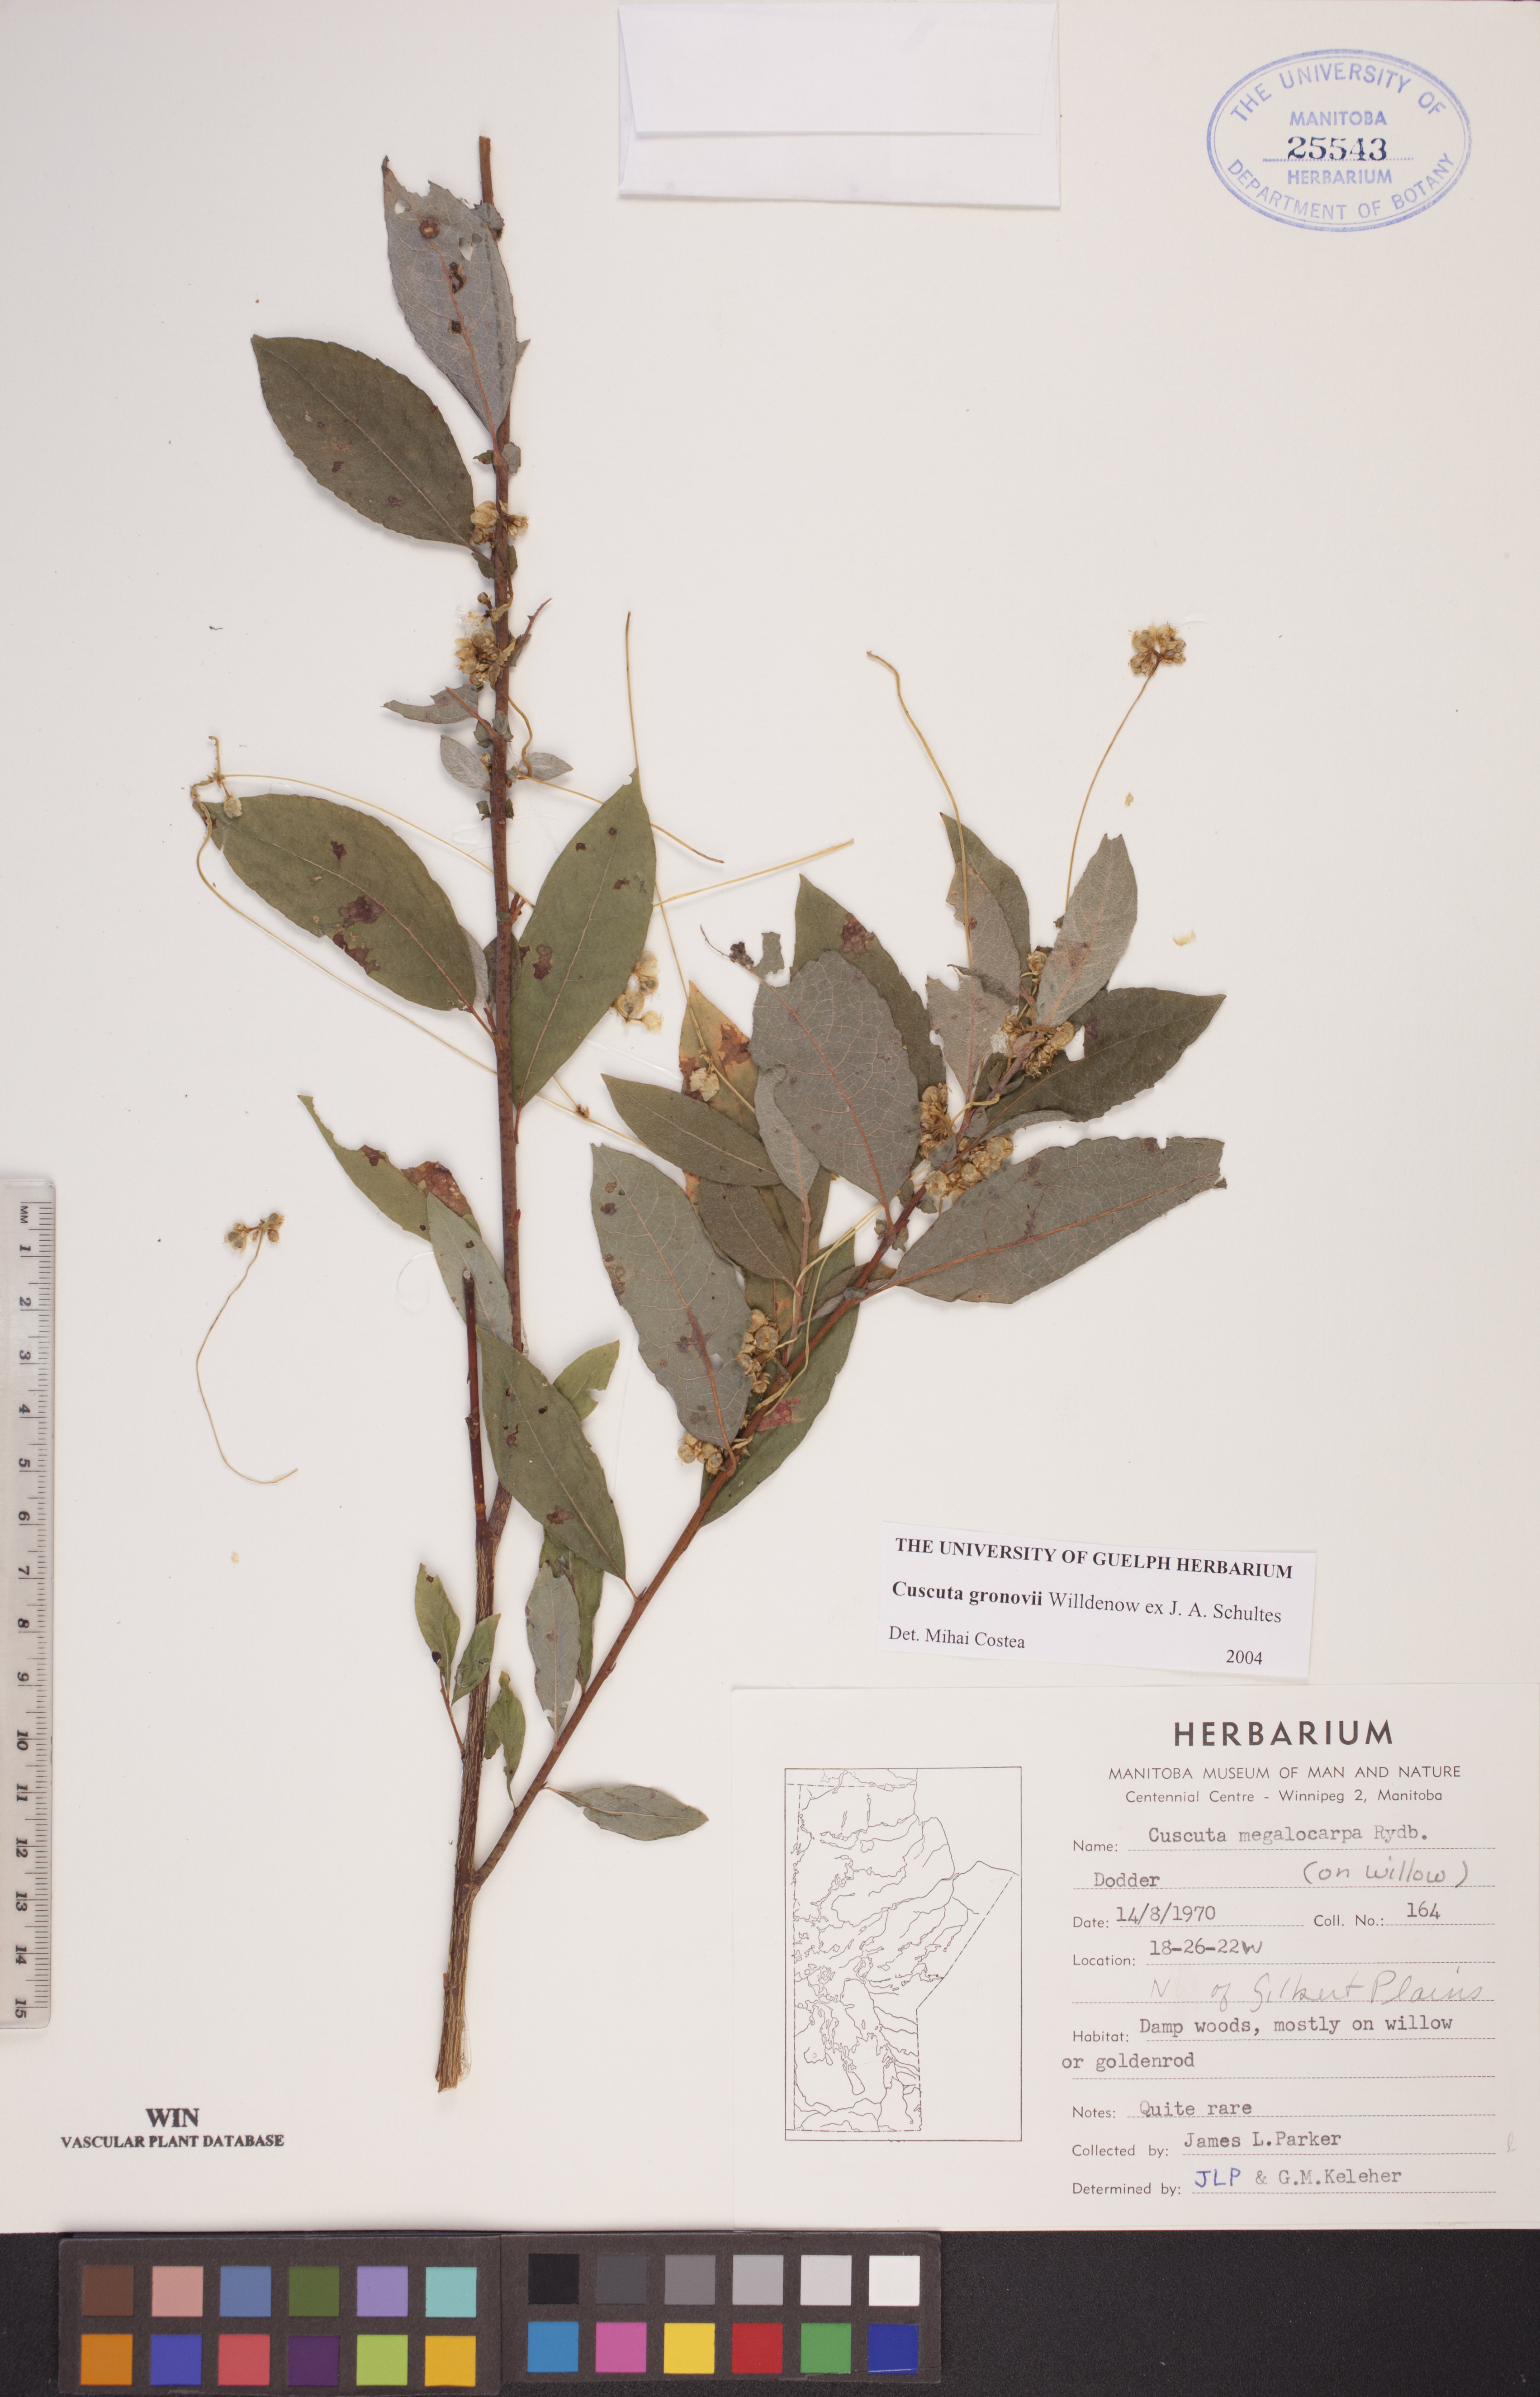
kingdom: Plantae
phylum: Tracheophyta
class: Magnoliopsida
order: Solanales
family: Convolvulaceae
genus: Cuscuta
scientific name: Cuscuta gronovii
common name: Common dodder
